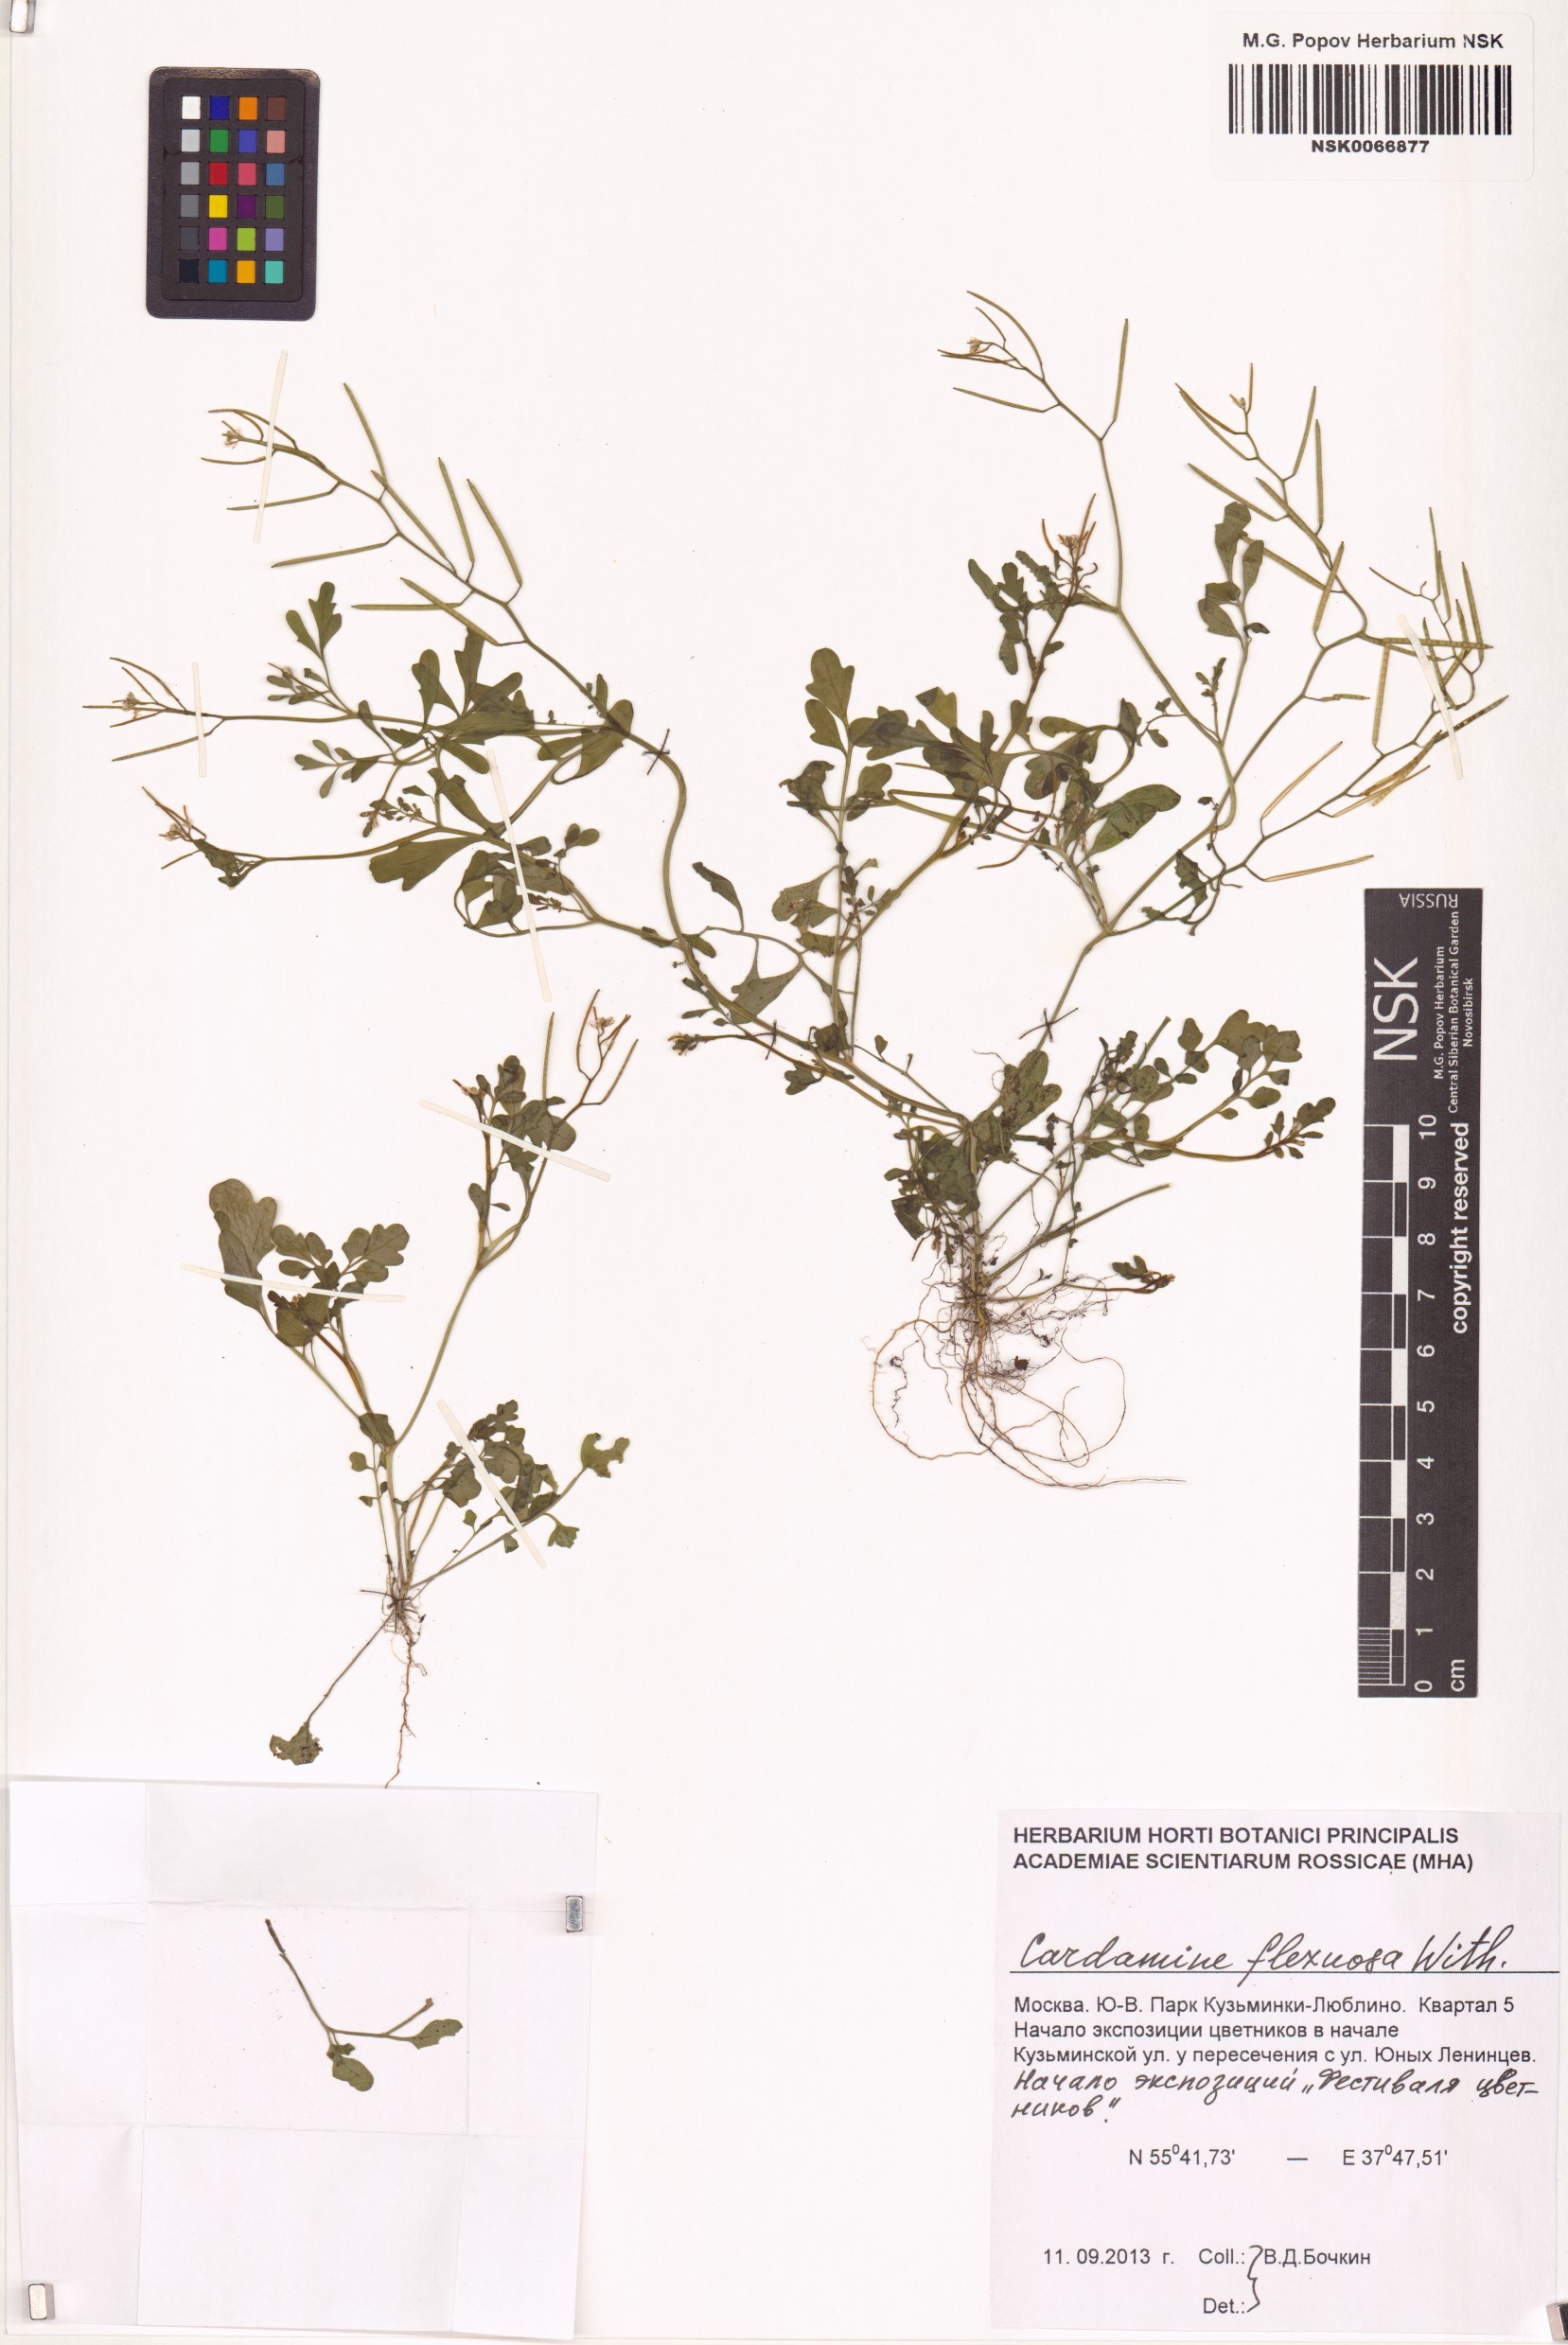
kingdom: Plantae
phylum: Tracheophyta
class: Magnoliopsida
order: Brassicales
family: Brassicaceae
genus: Cardamine
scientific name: Cardamine flexuosa
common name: Woodland bittercress
